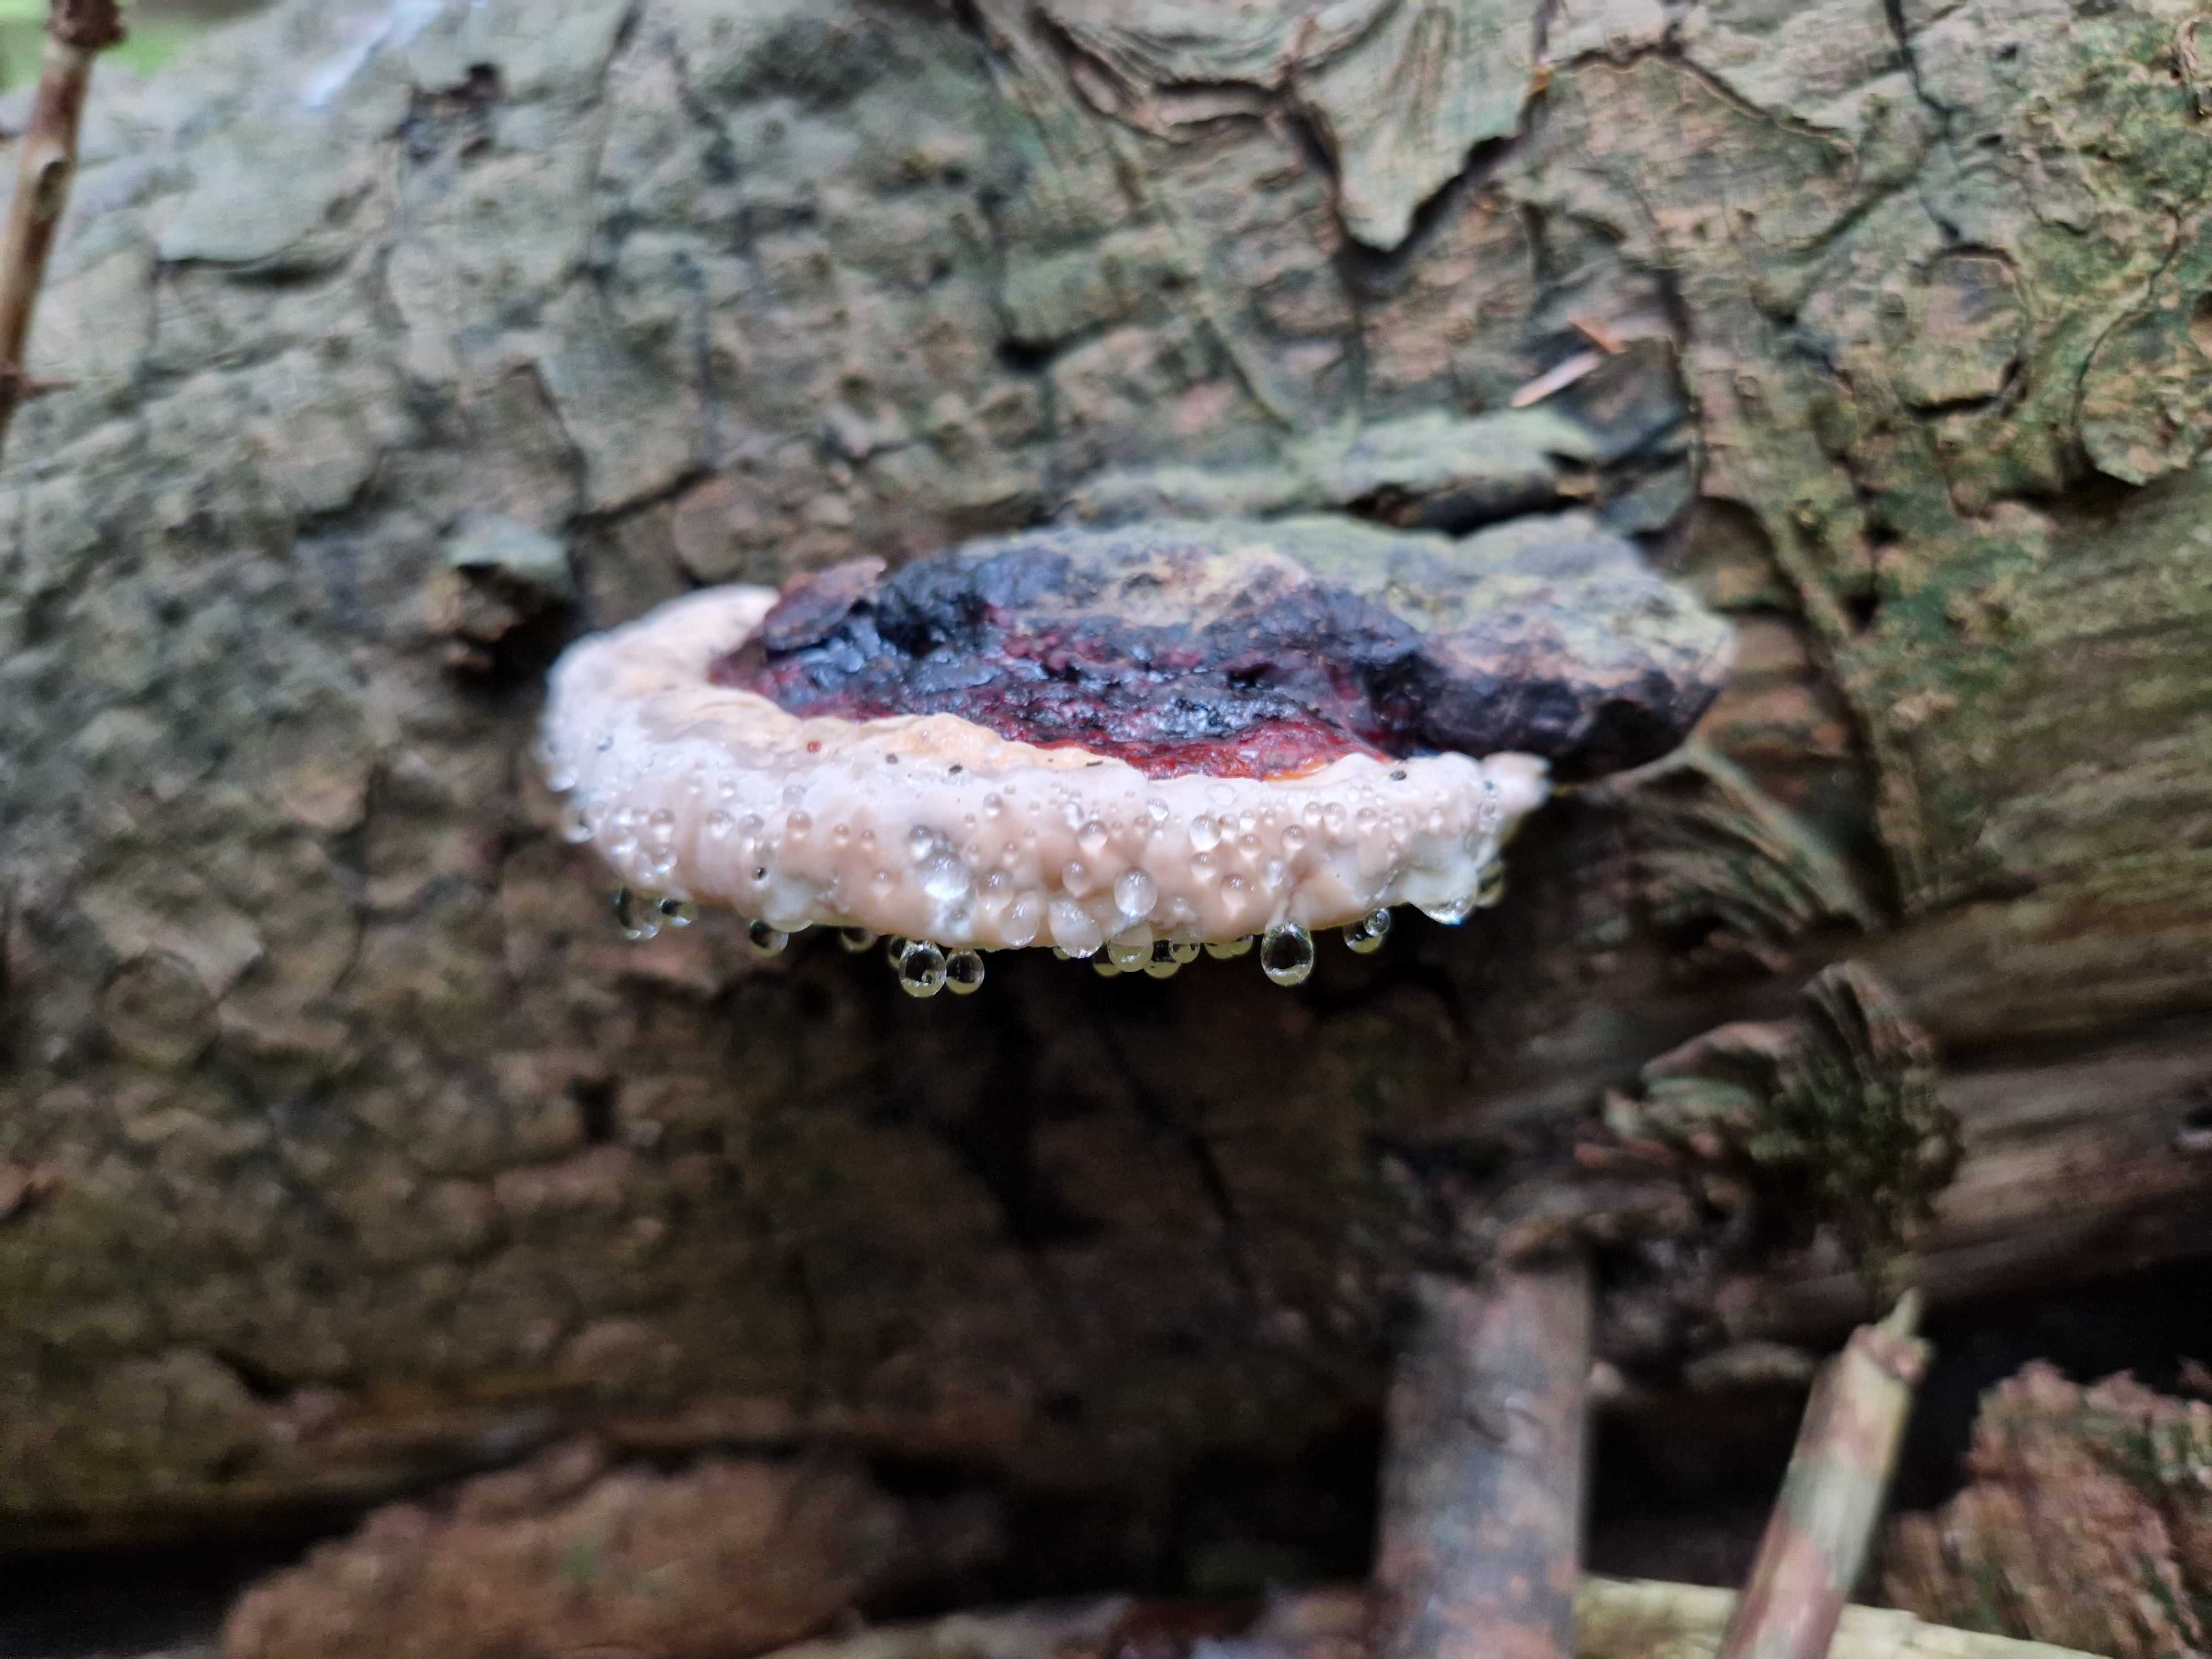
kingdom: Fungi
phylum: Basidiomycota
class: Agaricomycetes
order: Polyporales
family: Fomitopsidaceae
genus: Fomitopsis
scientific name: Fomitopsis pinicola
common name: randbæltet hovporesvamp
